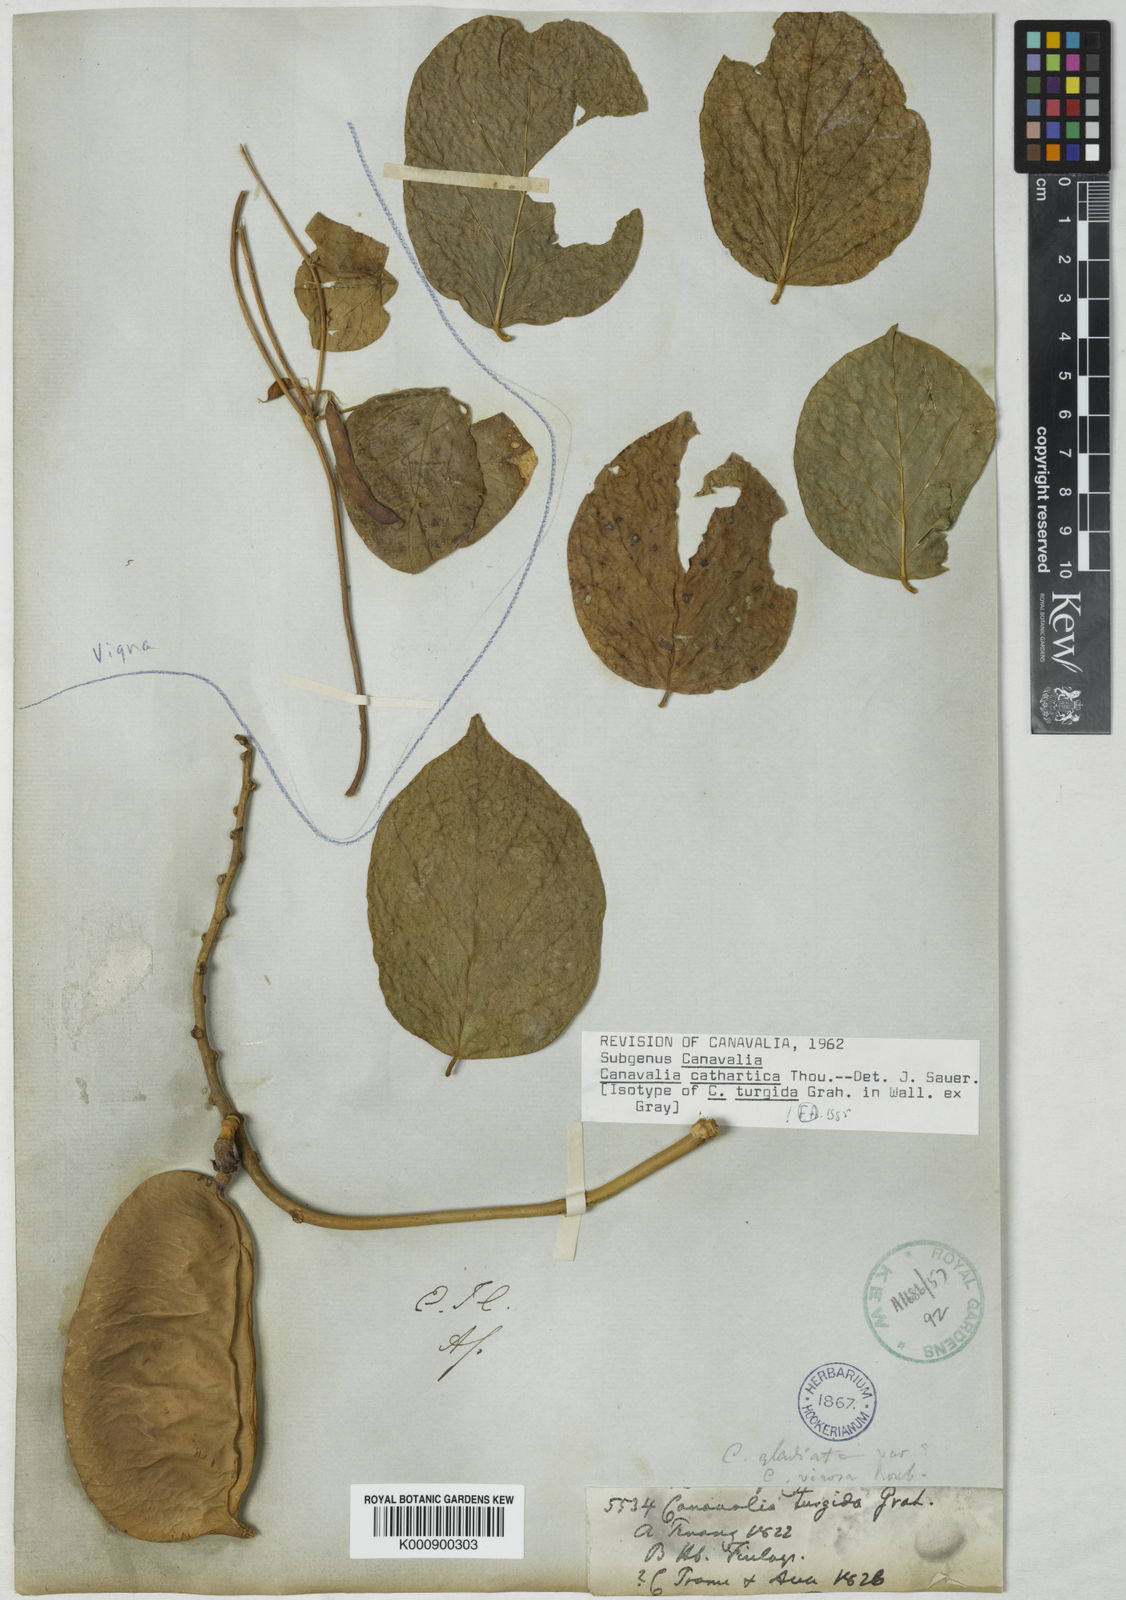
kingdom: Plantae
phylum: Tracheophyta
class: Magnoliopsida
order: Fabales
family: Fabaceae
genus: Canavalia
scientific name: Canavalia cathartica
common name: Maunaloa
